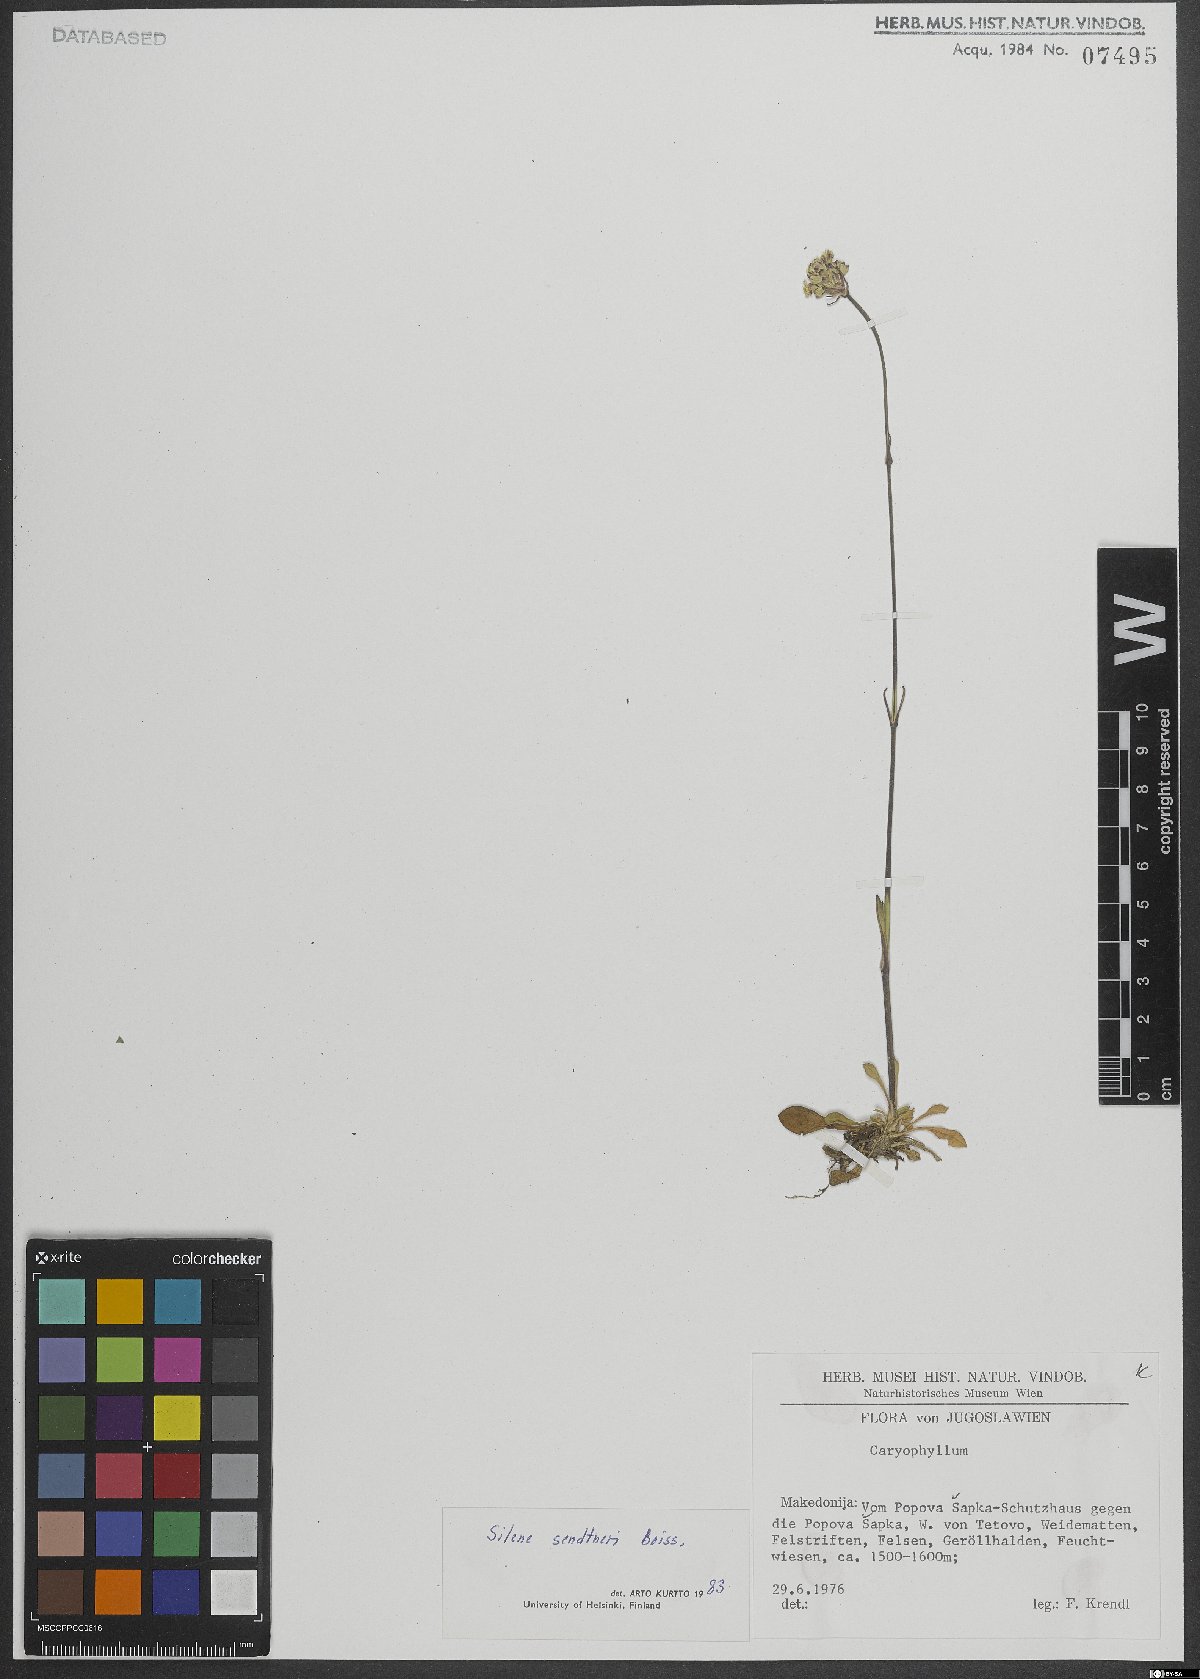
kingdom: Plantae
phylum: Tracheophyta
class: Magnoliopsida
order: Caryophyllales
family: Caryophyllaceae
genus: Silene
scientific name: Silene sendtneri
